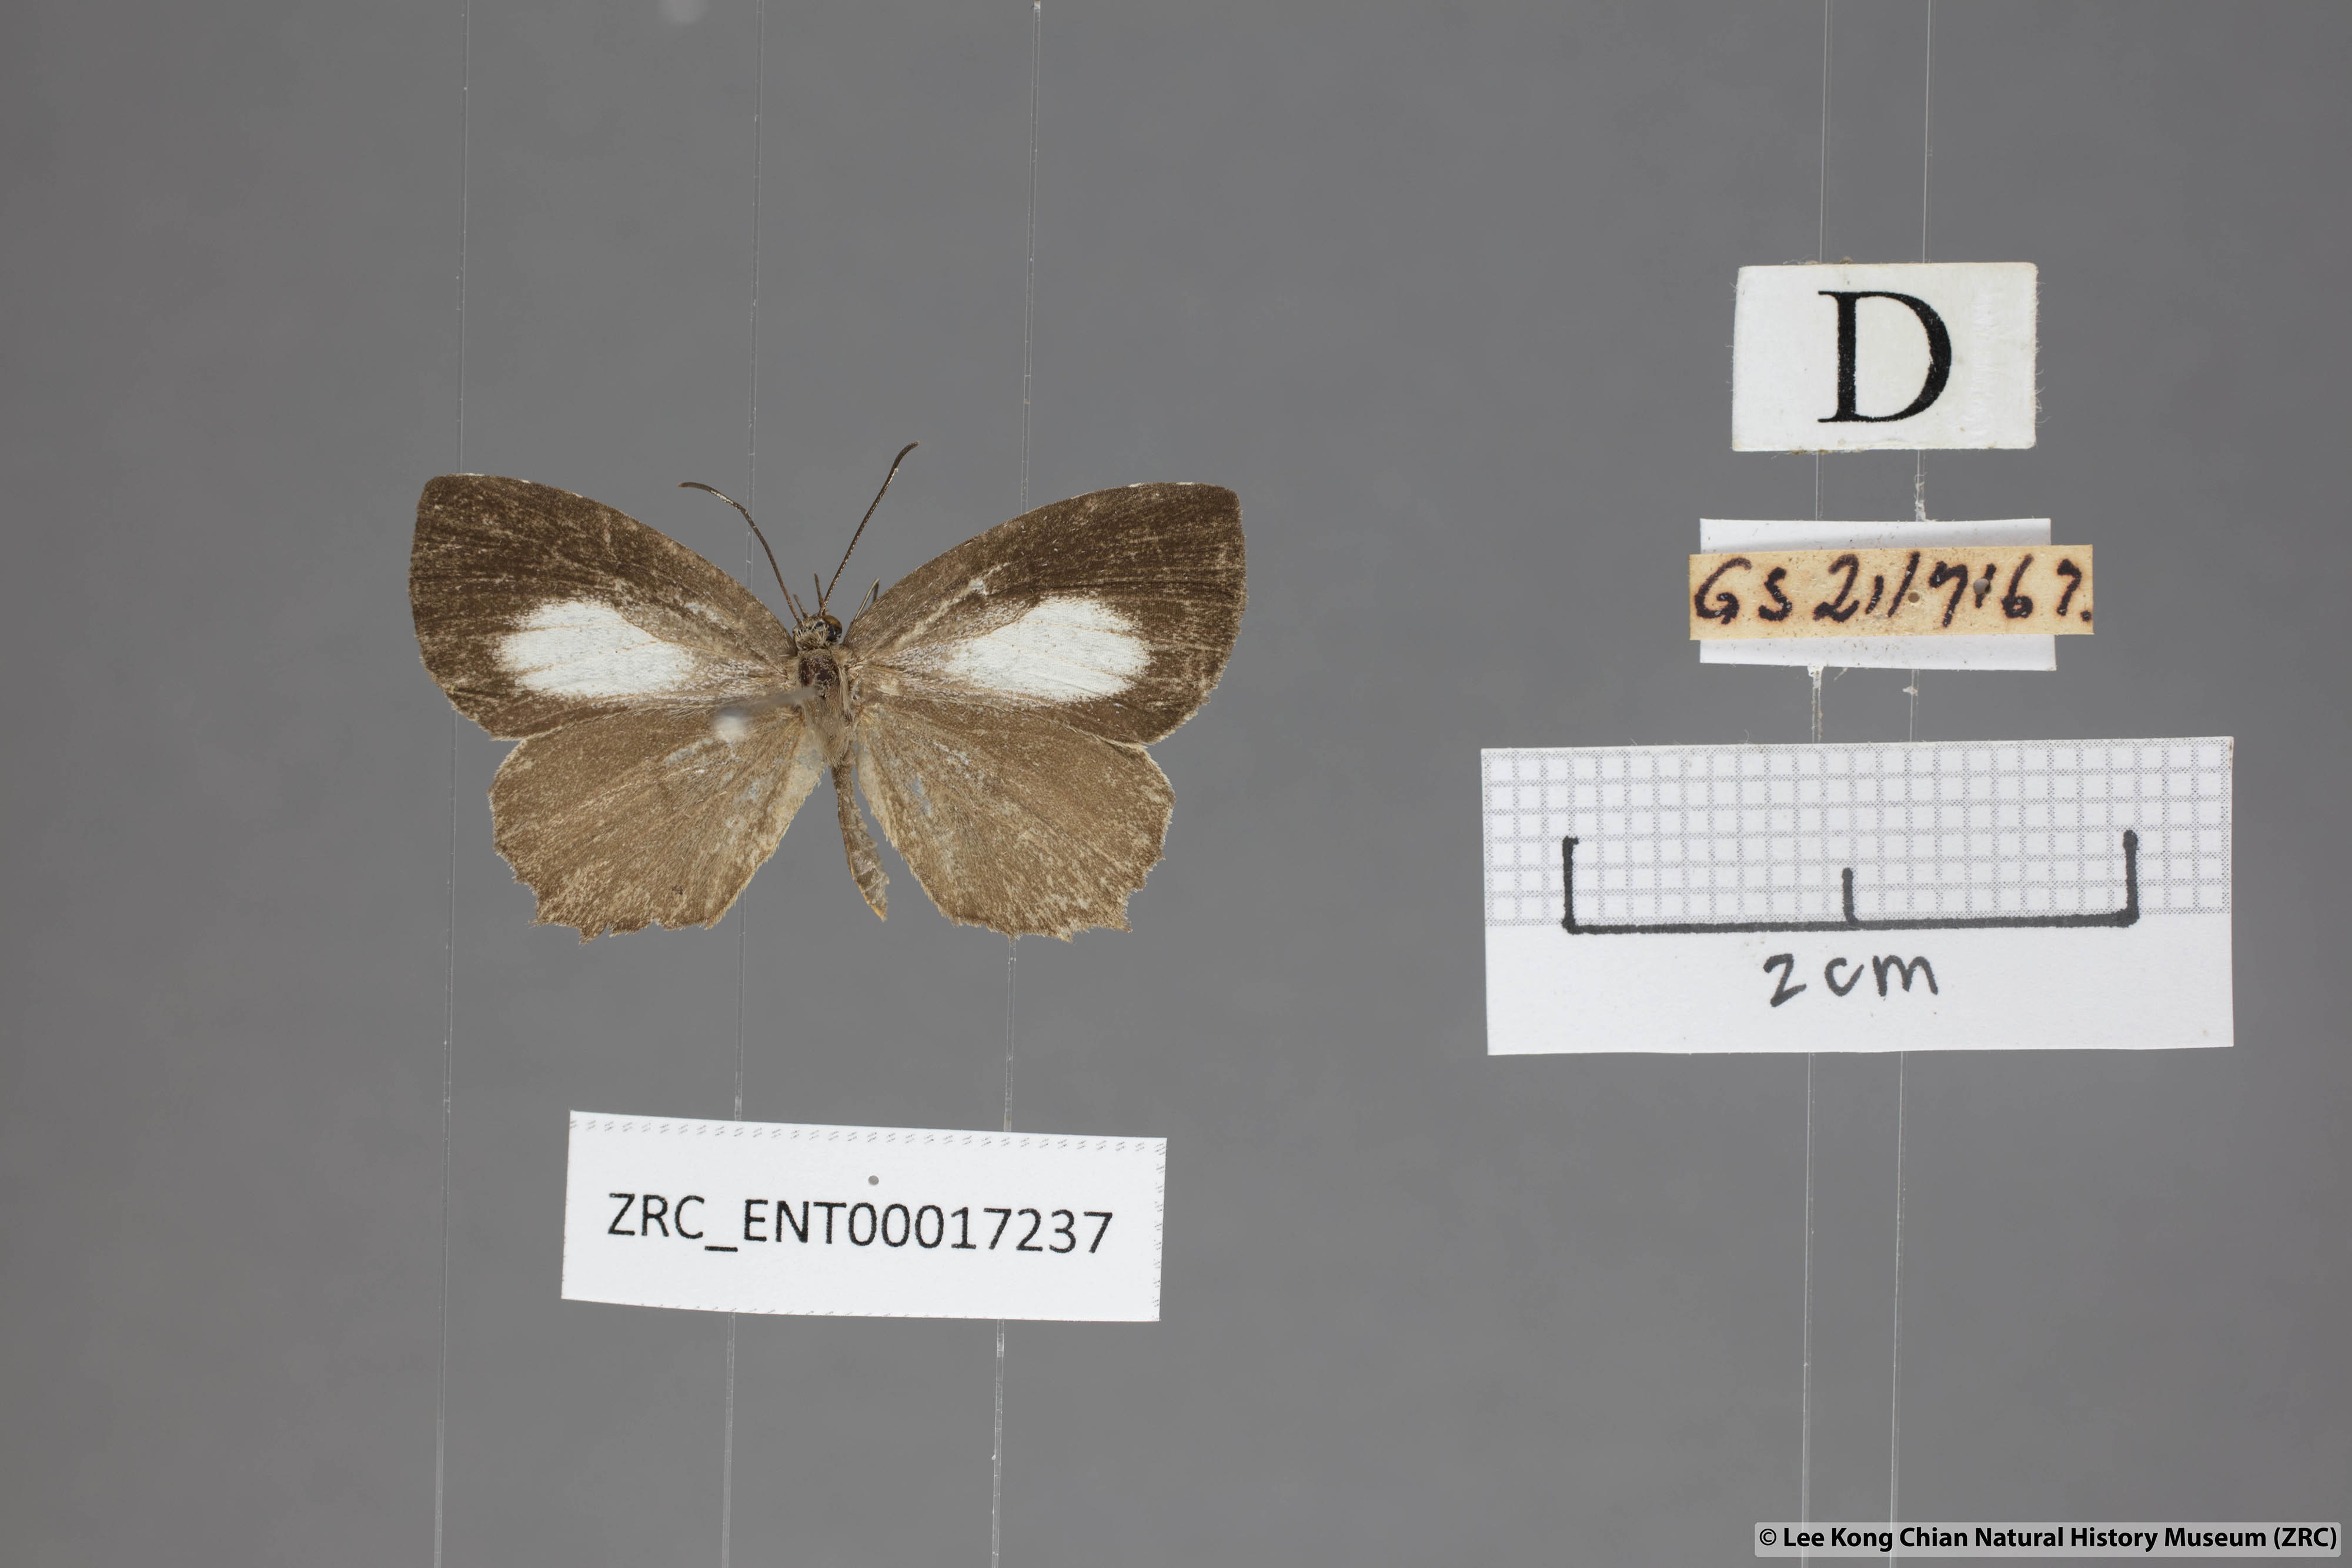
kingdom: Animalia
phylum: Arthropoda
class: Insecta
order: Lepidoptera
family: Lycaenidae
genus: Allotinus
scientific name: Allotinus fallax
